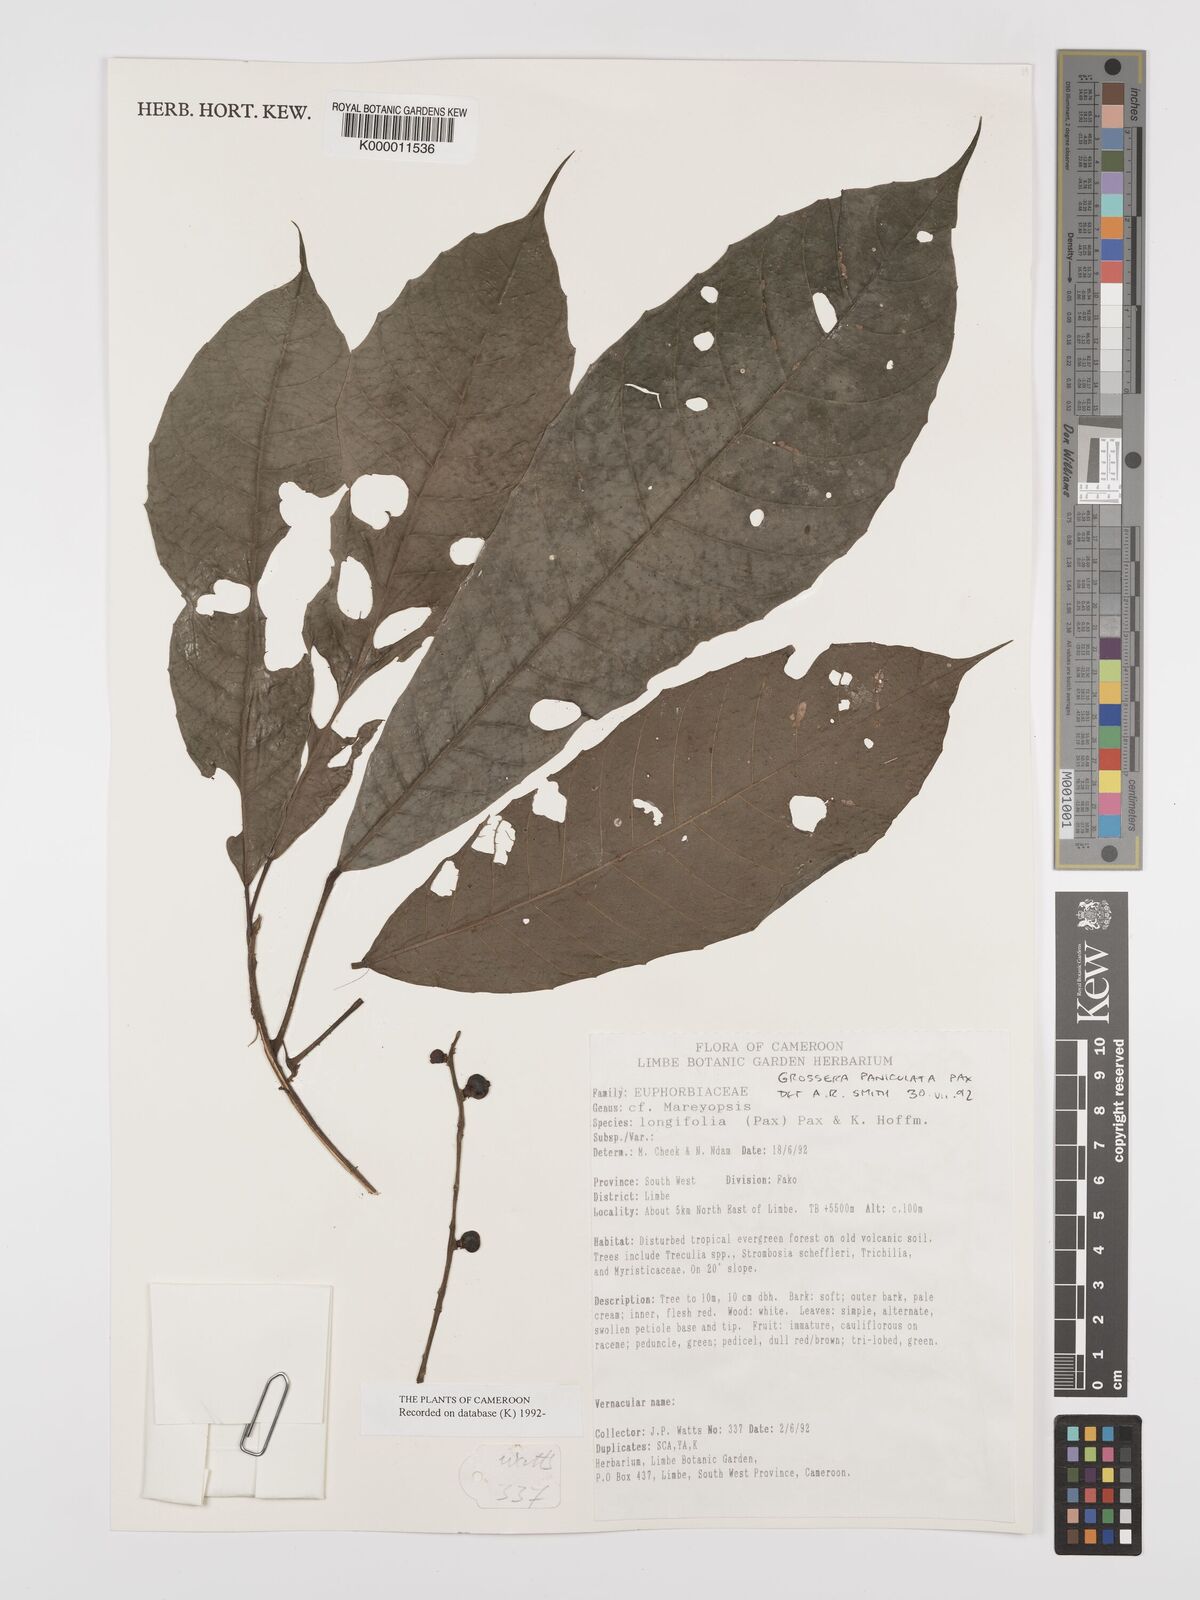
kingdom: Plantae
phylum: Tracheophyta
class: Magnoliopsida
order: Malpighiales
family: Euphorbiaceae
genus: Grossera
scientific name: Grossera paniculata
